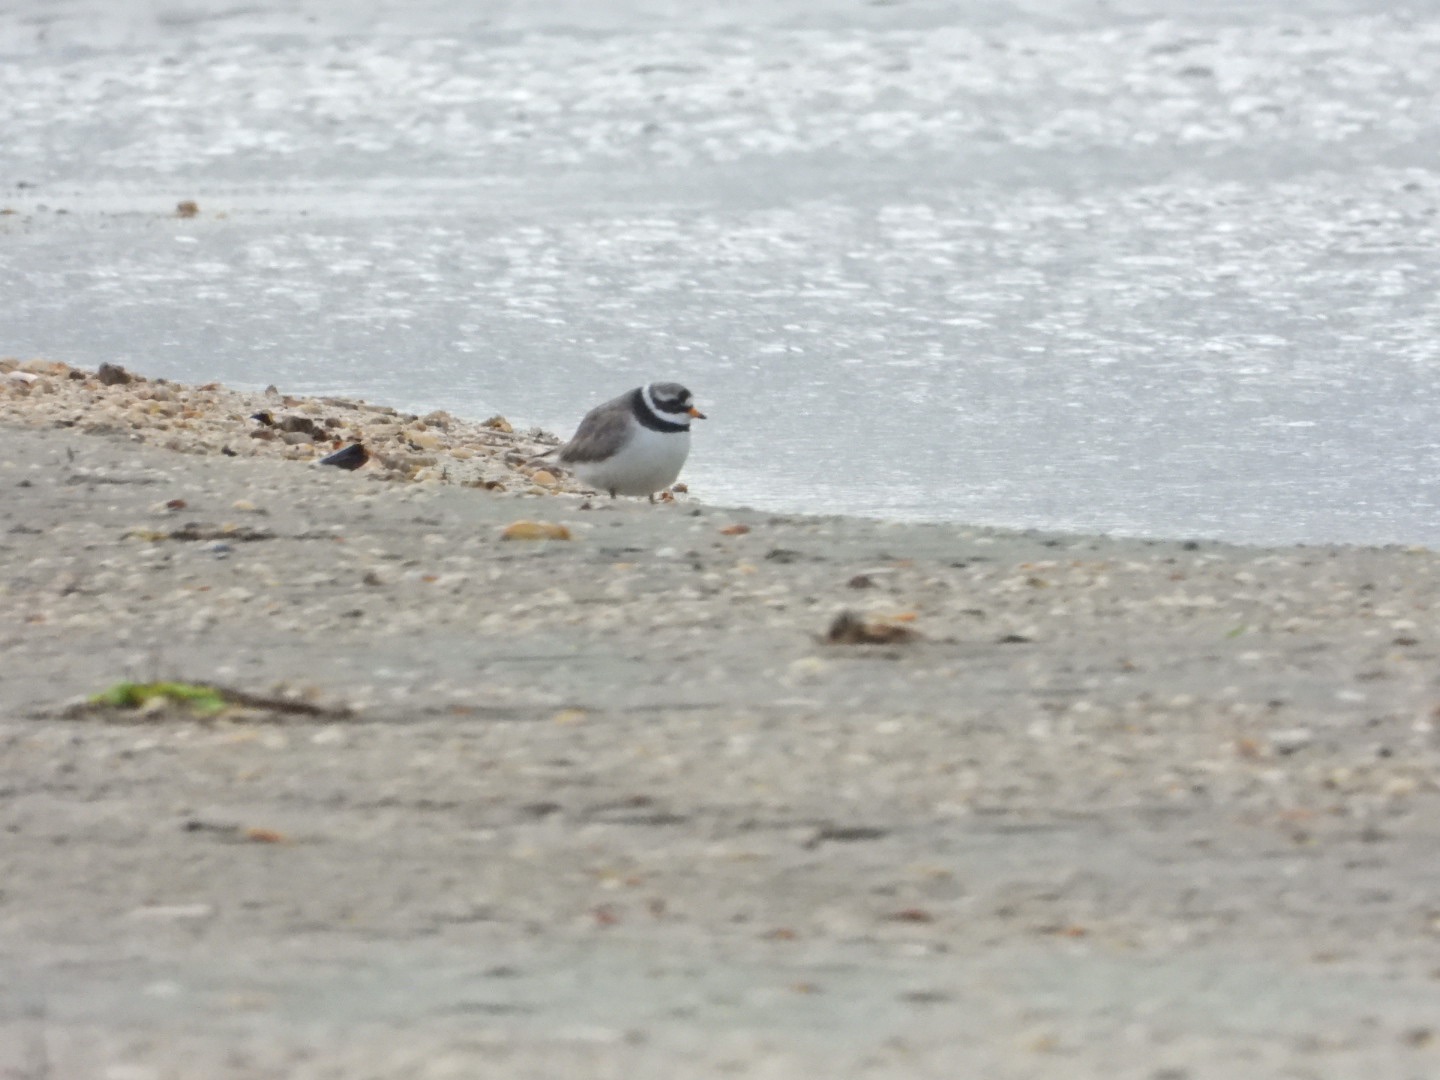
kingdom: Animalia
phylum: Chordata
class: Aves
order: Charadriiformes
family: Charadriidae
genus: Charadrius
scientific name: Charadrius hiaticula
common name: Stor præstekrave
